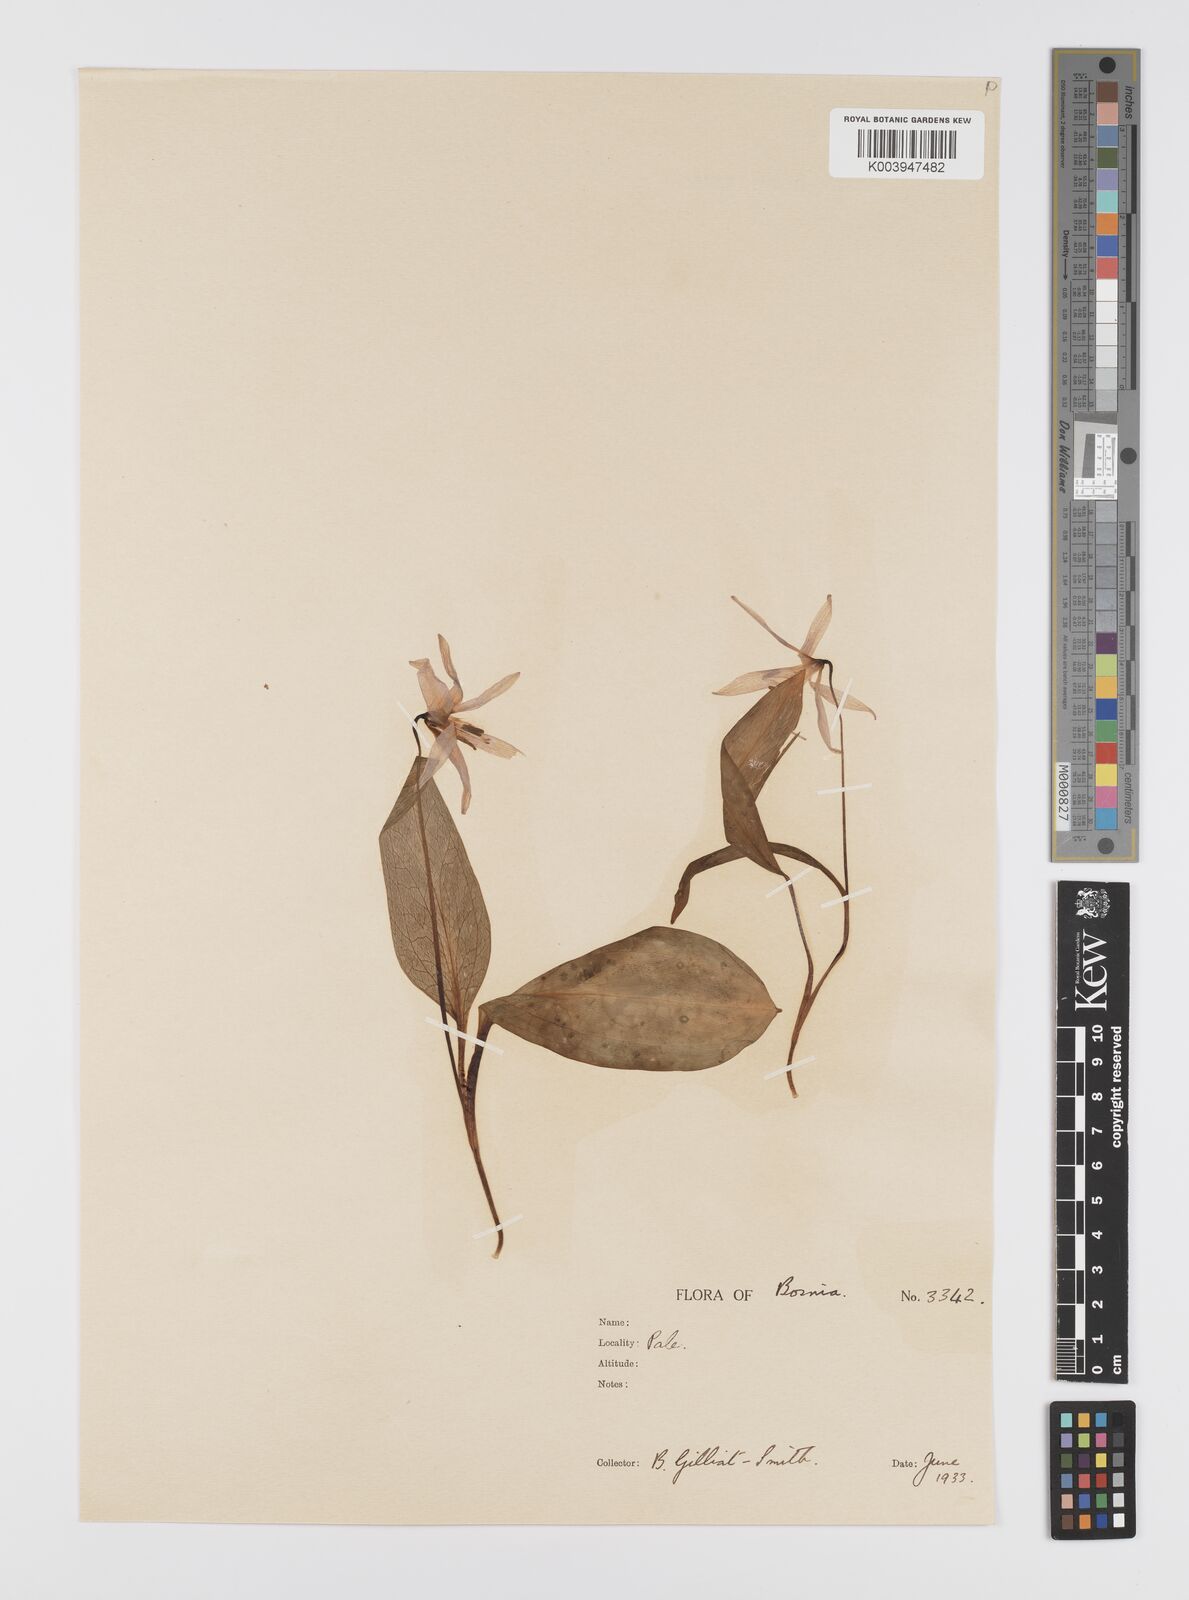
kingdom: Plantae
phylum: Tracheophyta
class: Liliopsida
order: Liliales
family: Liliaceae
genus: Erythronium
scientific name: Erythronium dens-canis
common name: Dog's-tooth-violet
